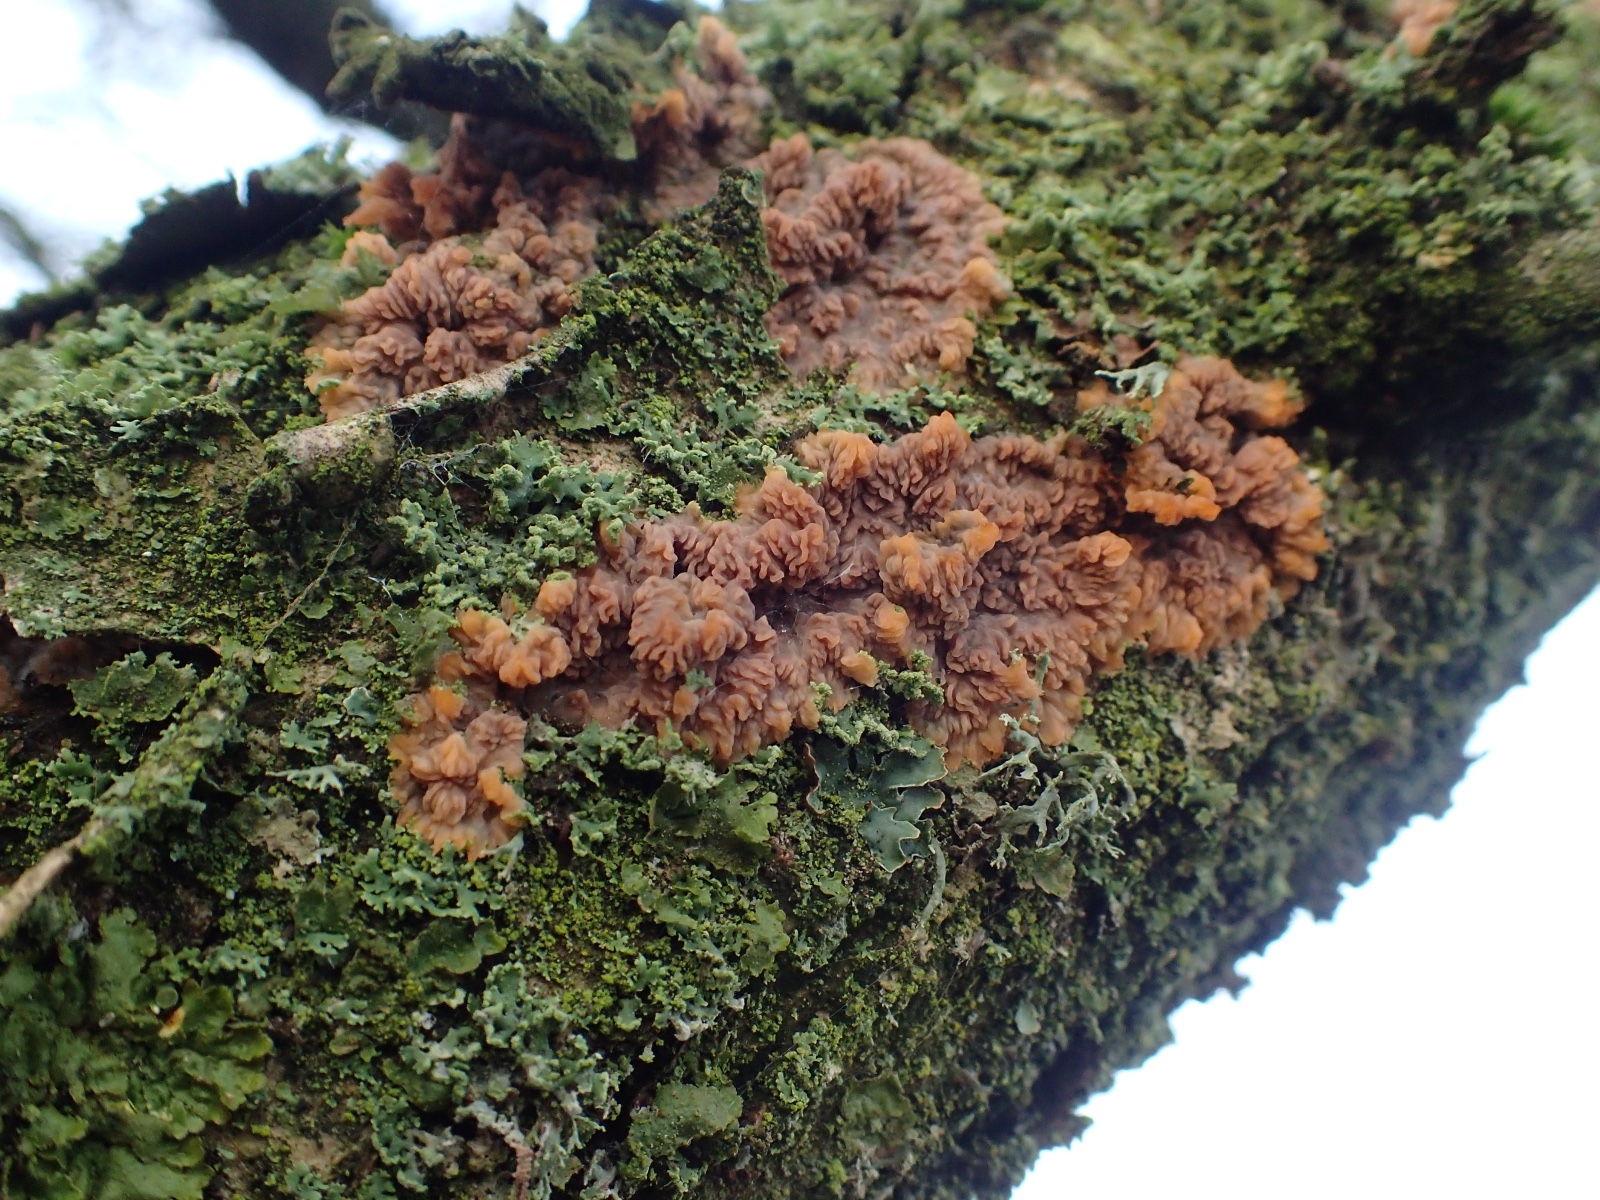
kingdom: Fungi
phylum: Basidiomycota
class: Agaricomycetes
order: Polyporales
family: Meruliaceae
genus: Phlebia
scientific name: Phlebia radiata
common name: stråle-åresvamp
